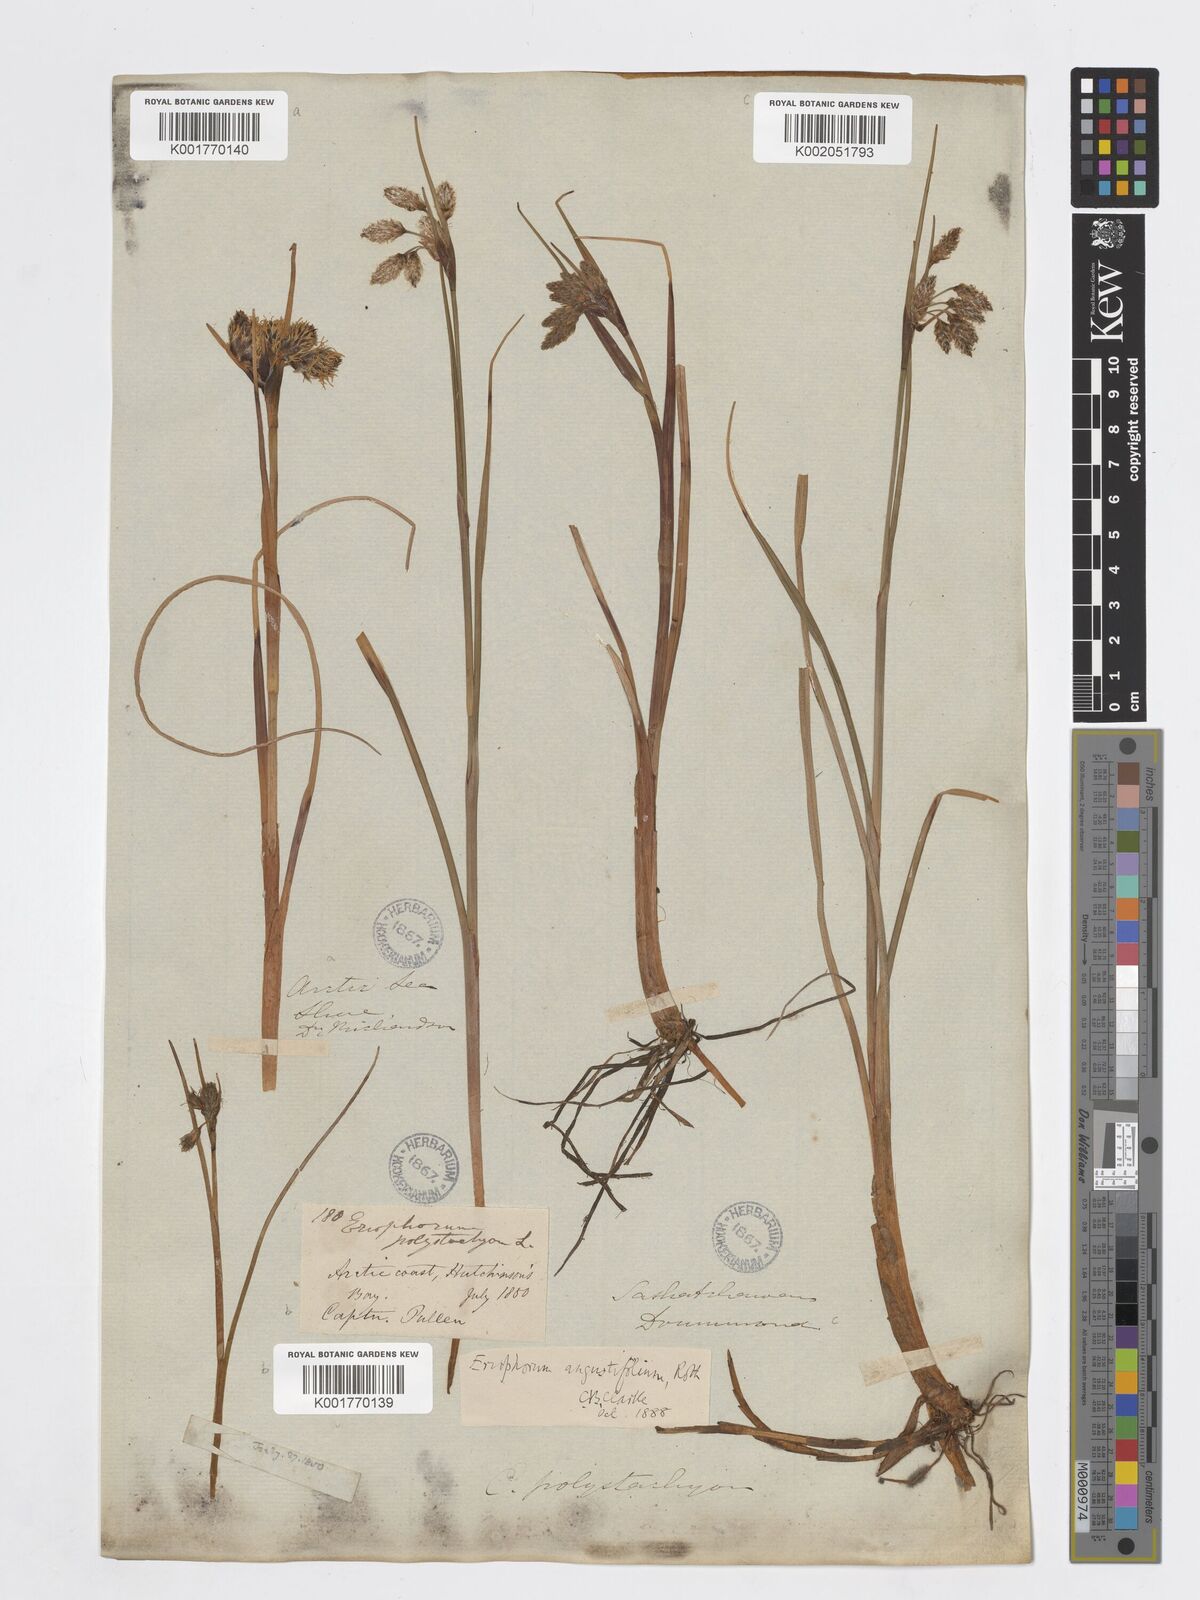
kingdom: Plantae
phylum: Tracheophyta
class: Liliopsida
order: Poales
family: Cyperaceae
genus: Eriophorum
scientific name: Eriophorum angustifolium
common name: Common cottongrass
